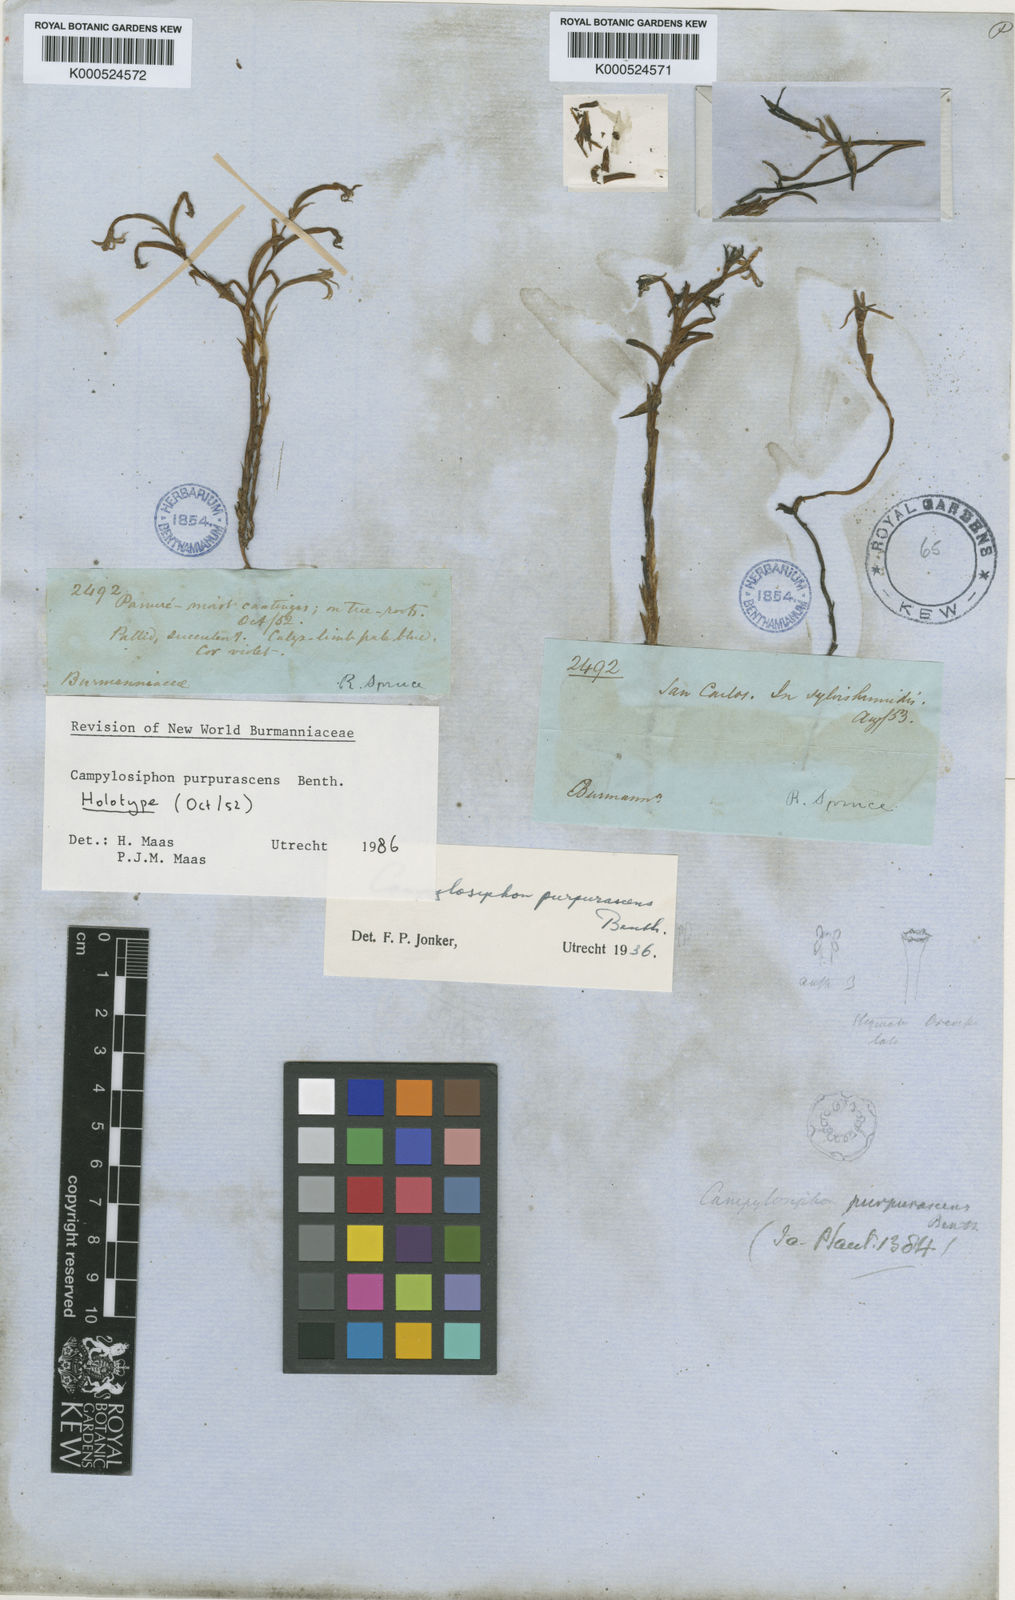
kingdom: Plantae
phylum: Tracheophyta
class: Liliopsida
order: Dioscoreales
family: Burmanniaceae
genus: Campylosiphon
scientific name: Campylosiphon purpurascens
